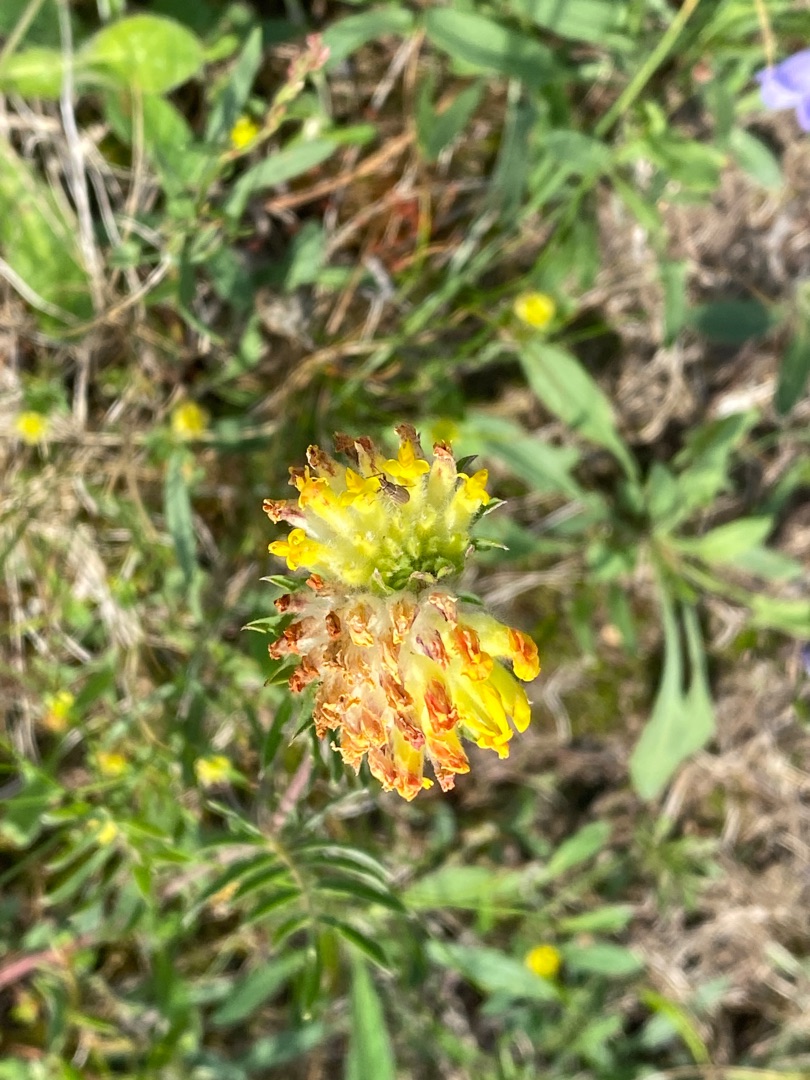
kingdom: Plantae
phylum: Tracheophyta
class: Magnoliopsida
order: Fabales
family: Fabaceae
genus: Anthyllis
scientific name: Anthyllis vulneraria
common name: Rundbælg
